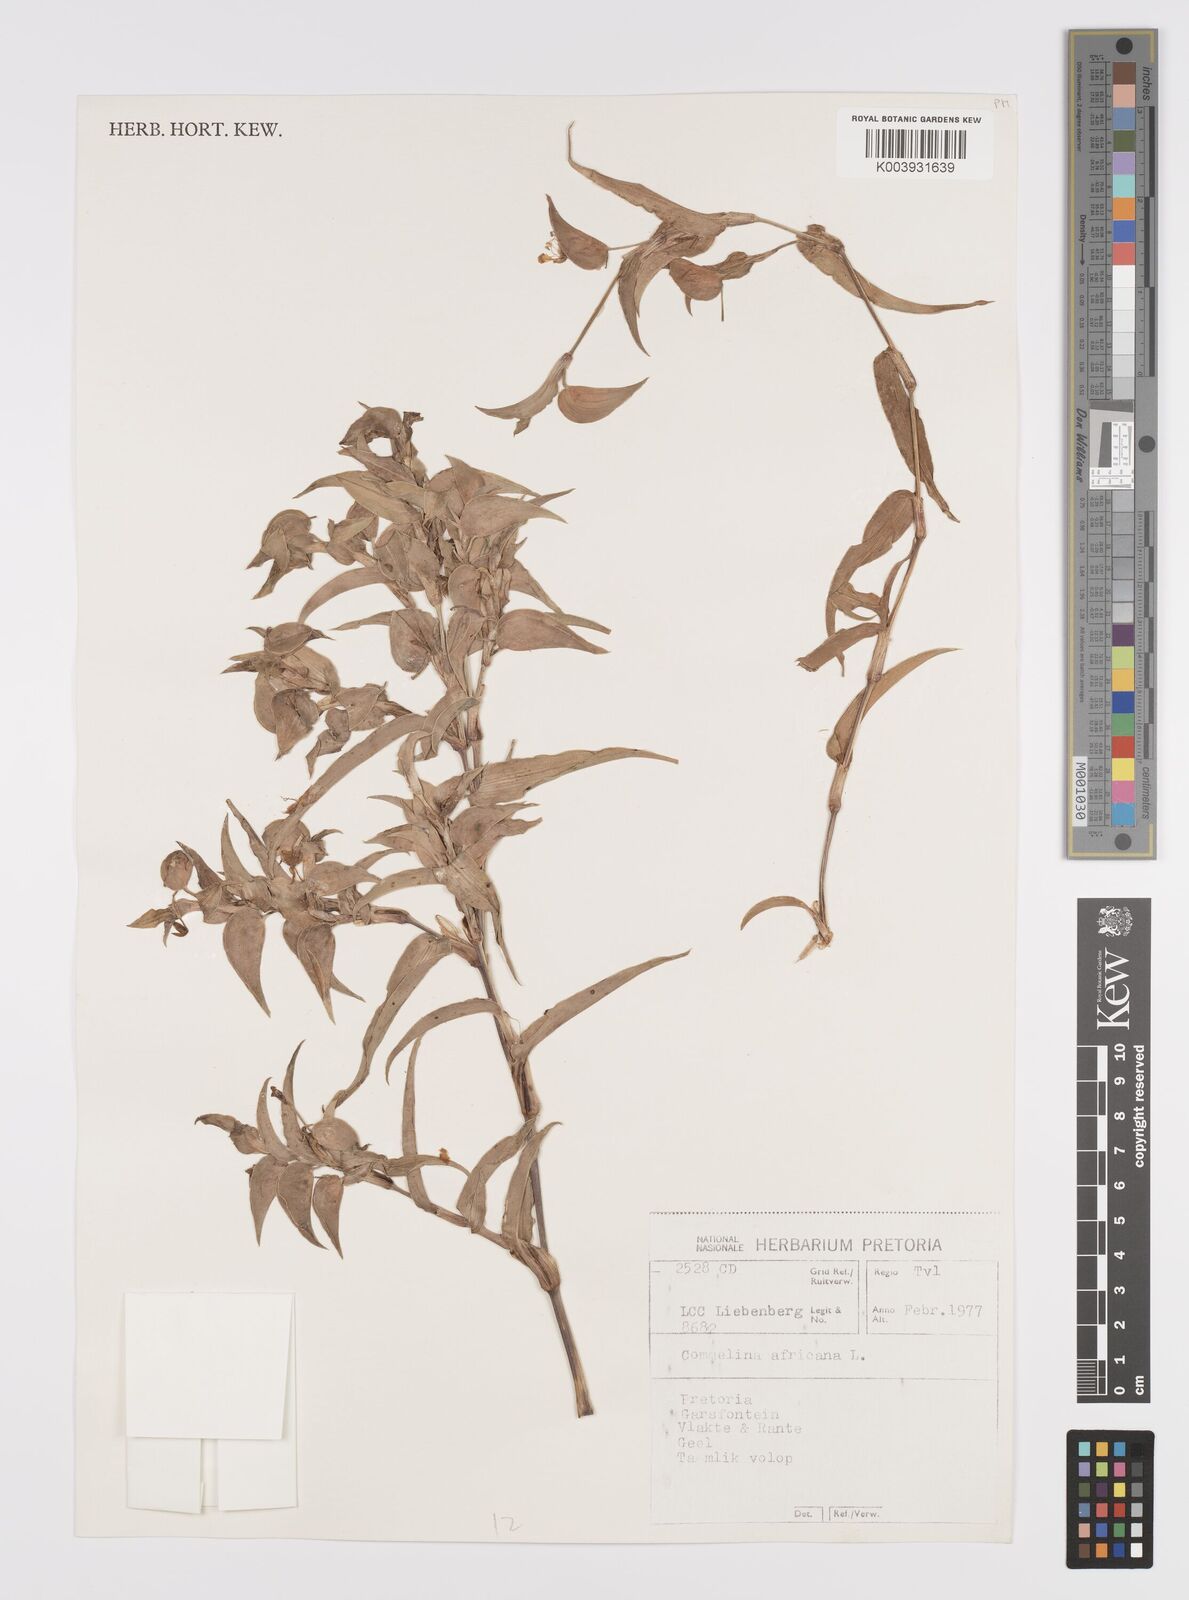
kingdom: Plantae
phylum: Tracheophyta
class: Liliopsida
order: Commelinales
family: Commelinaceae
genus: Commelina
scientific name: Commelina africana
